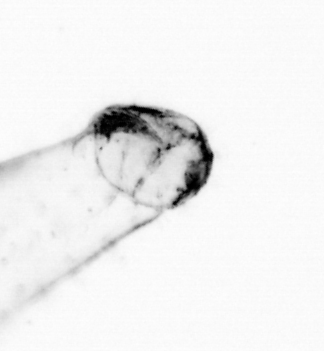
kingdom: Animalia
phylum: Chaetognatha
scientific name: Chaetognatha
